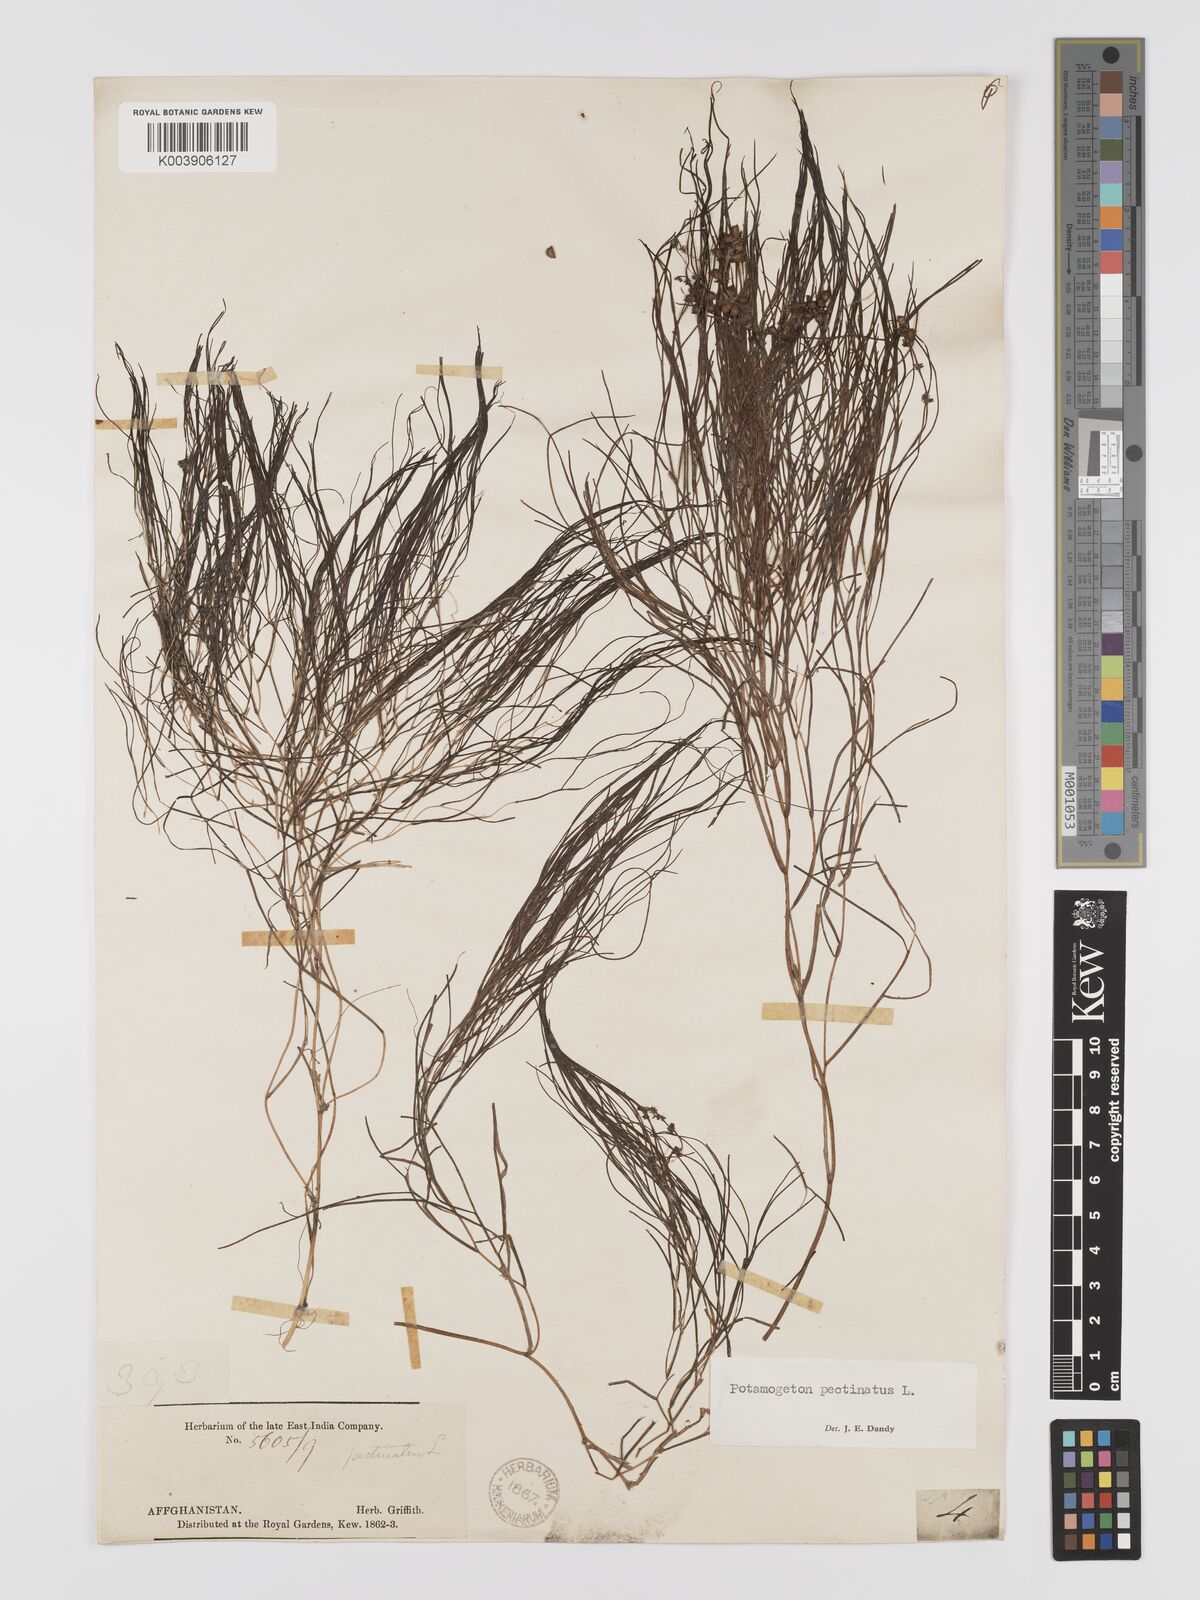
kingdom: Plantae
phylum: Tracheophyta
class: Liliopsida
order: Alismatales
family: Potamogetonaceae
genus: Stuckenia
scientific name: Stuckenia pectinata
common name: Sago pondweed
